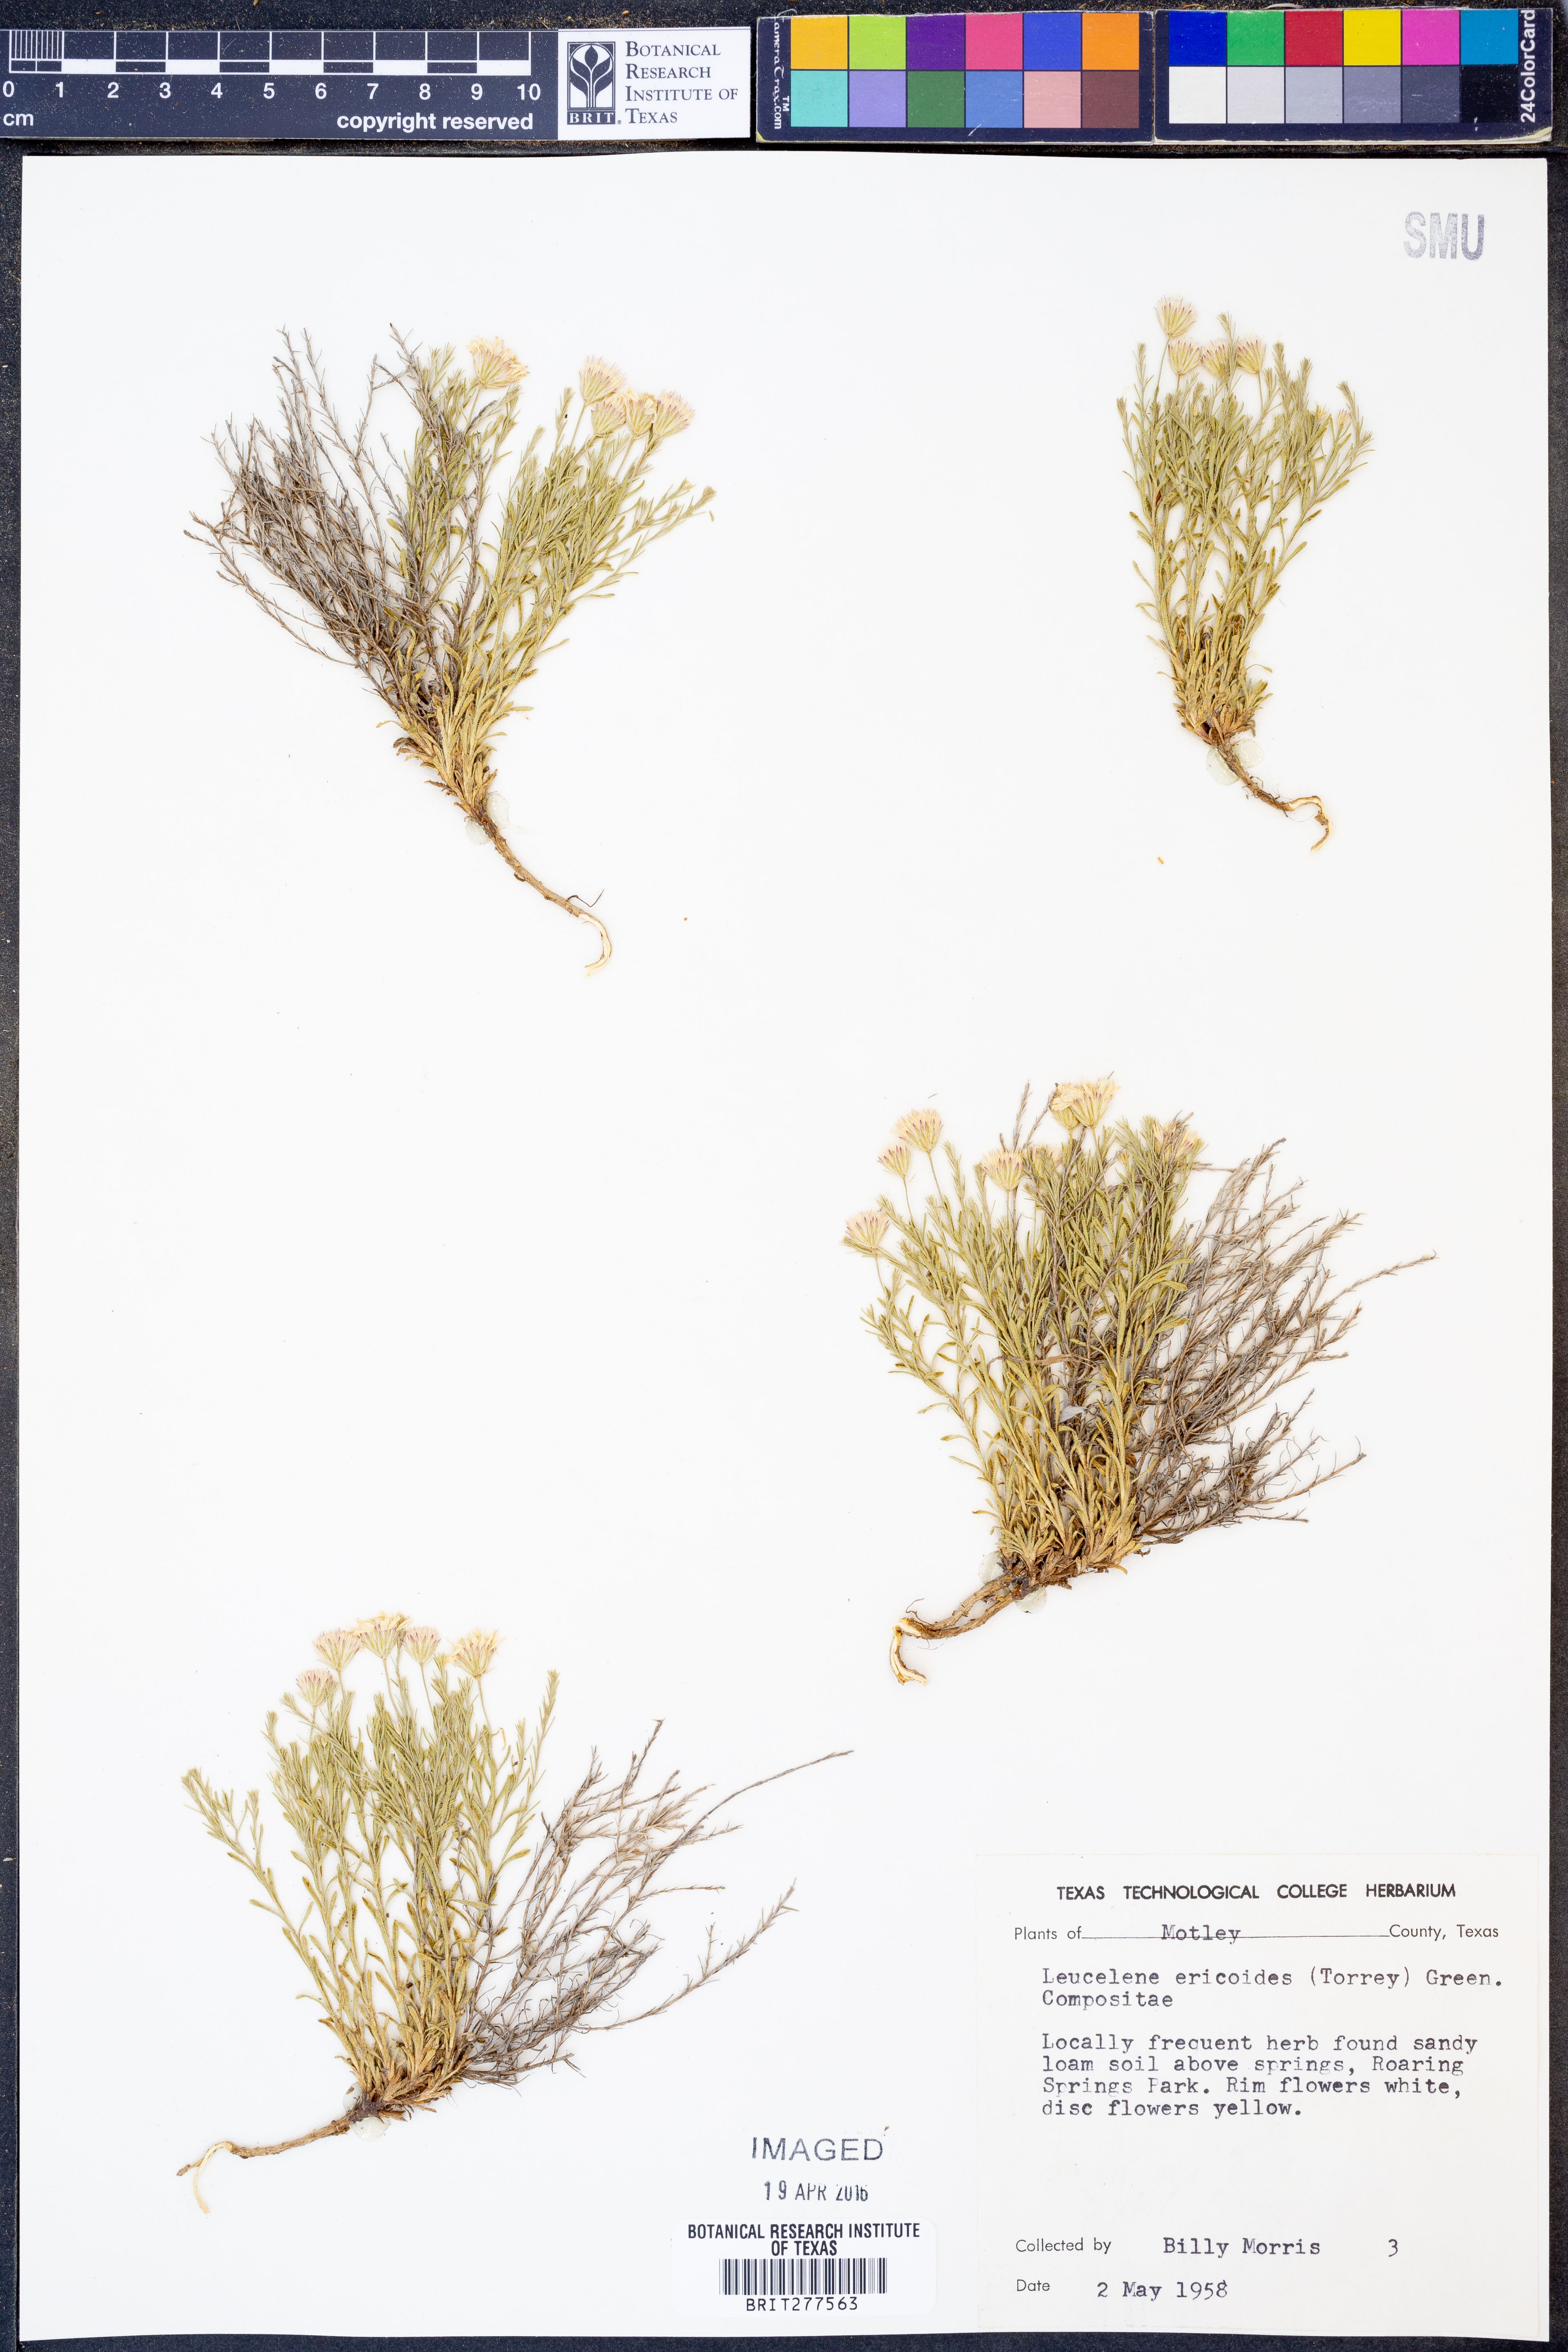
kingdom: Plantae
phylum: Tracheophyta
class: Magnoliopsida
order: Asterales
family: Asteraceae
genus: Chaetopappa
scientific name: Chaetopappa ericoides
